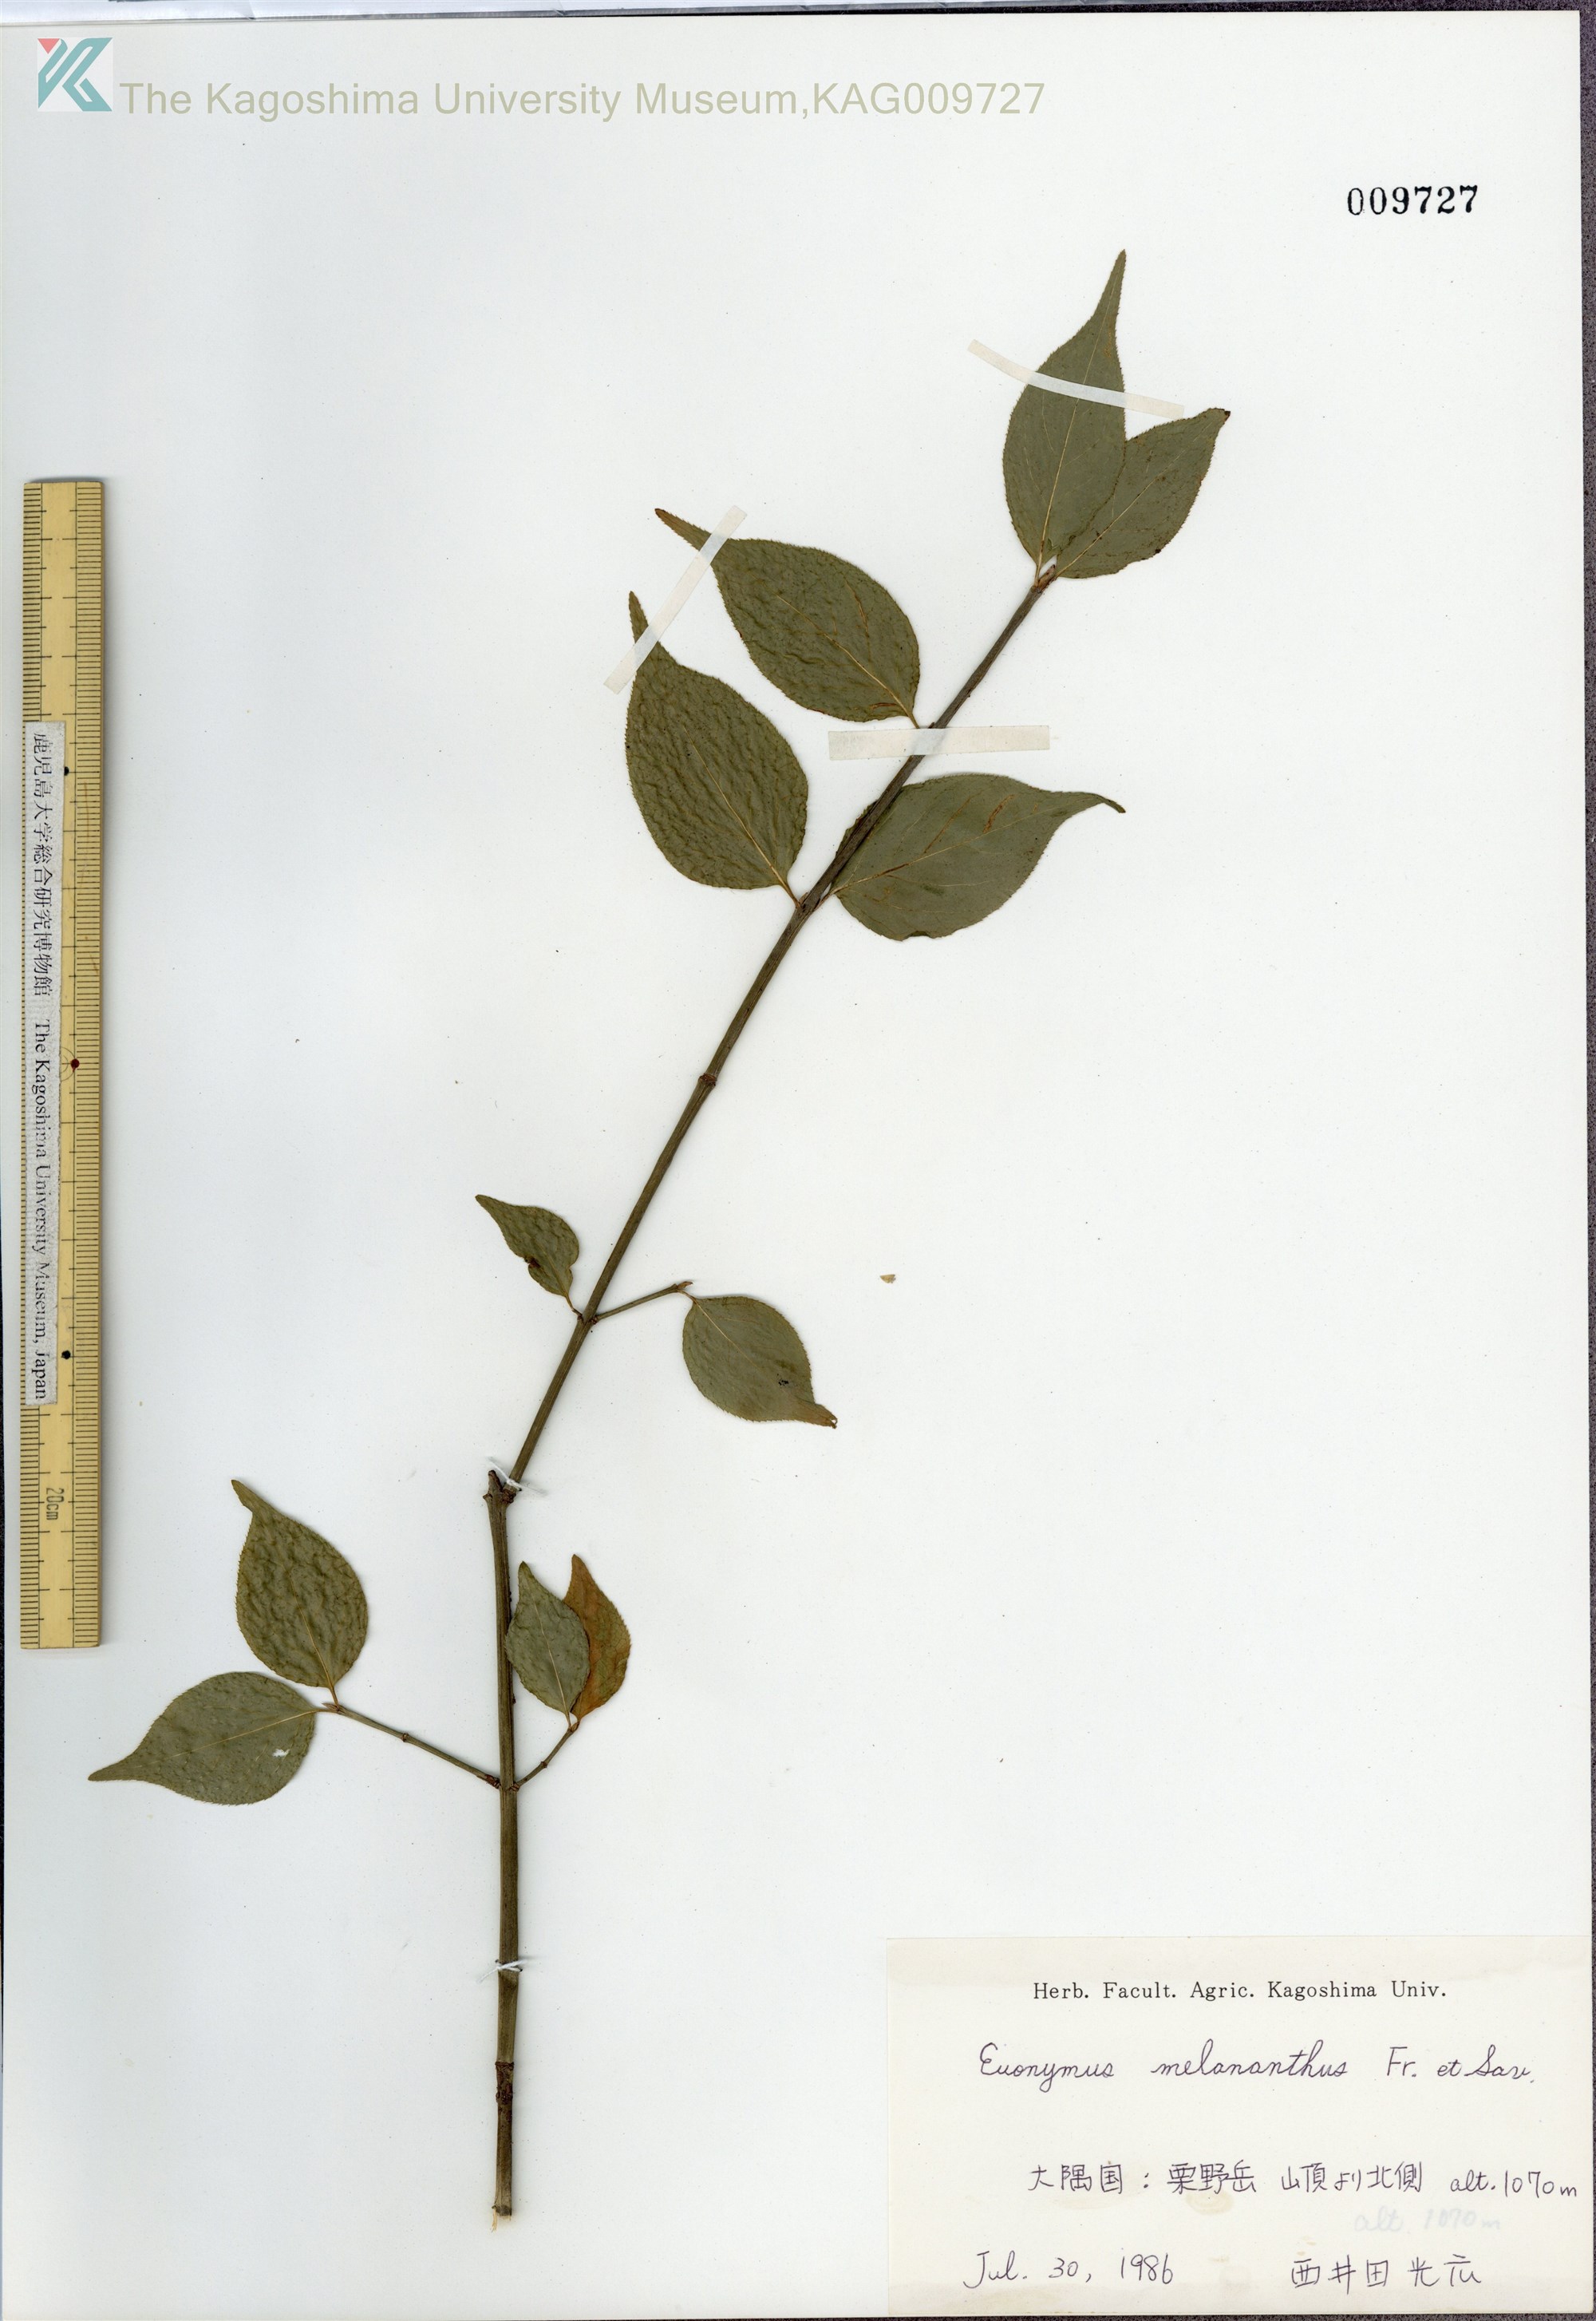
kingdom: Plantae
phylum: Tracheophyta
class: Magnoliopsida
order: Celastrales
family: Celastraceae
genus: Euonymus
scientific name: Euonymus melananthus
